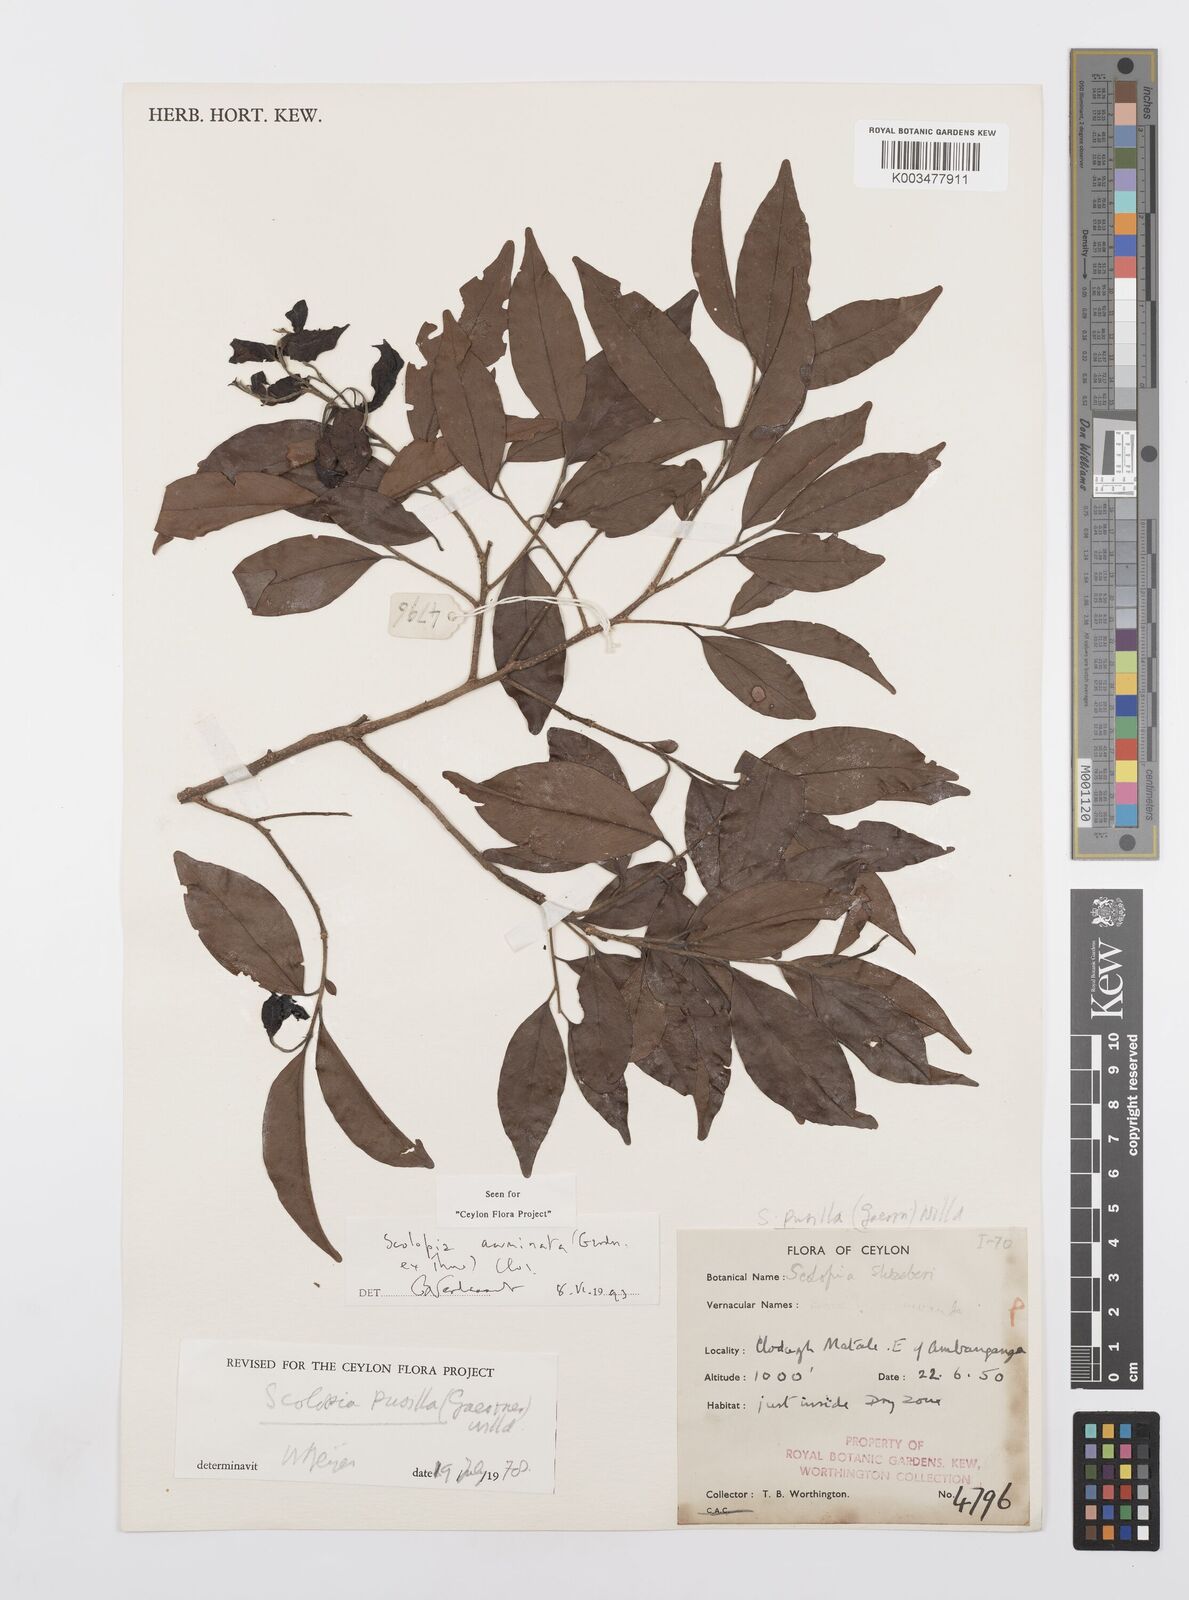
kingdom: Plantae
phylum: Tracheophyta
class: Magnoliopsida
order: Malpighiales
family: Salicaceae
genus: Scolopia
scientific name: Scolopia acuminata
